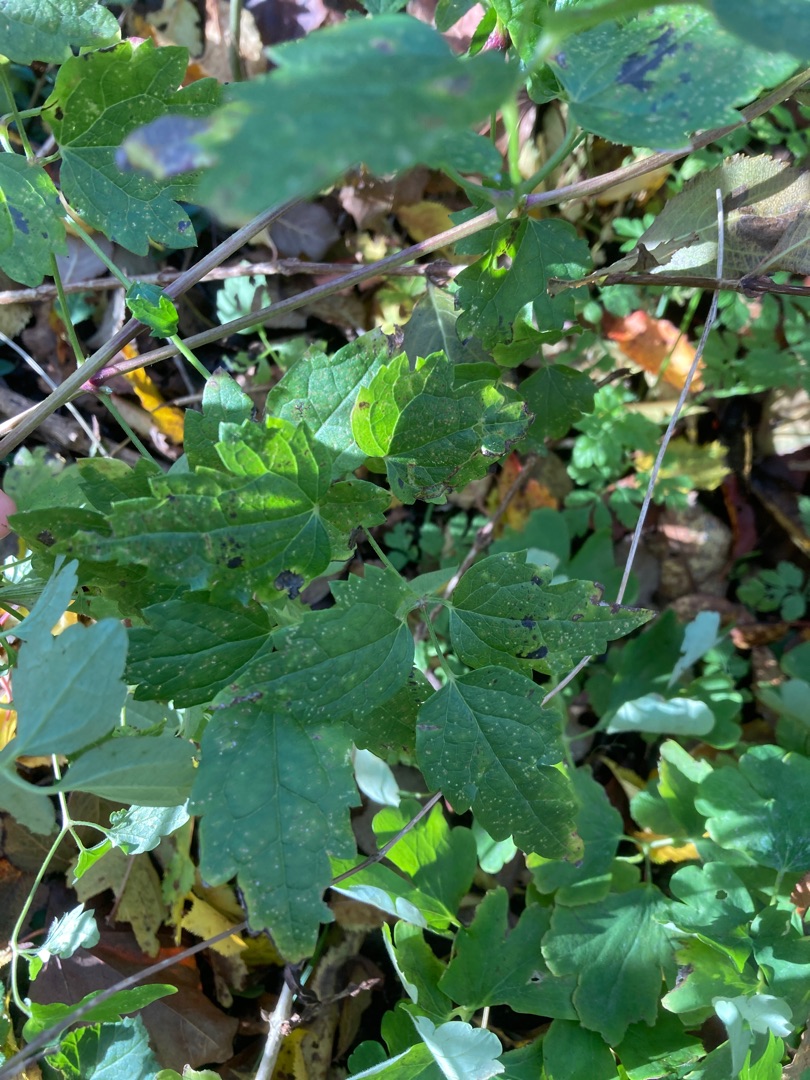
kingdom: Plantae
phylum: Tracheophyta
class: Magnoliopsida
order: Ranunculales
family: Ranunculaceae
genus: Clematis
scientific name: Clematis vitalba
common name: Skovranke
